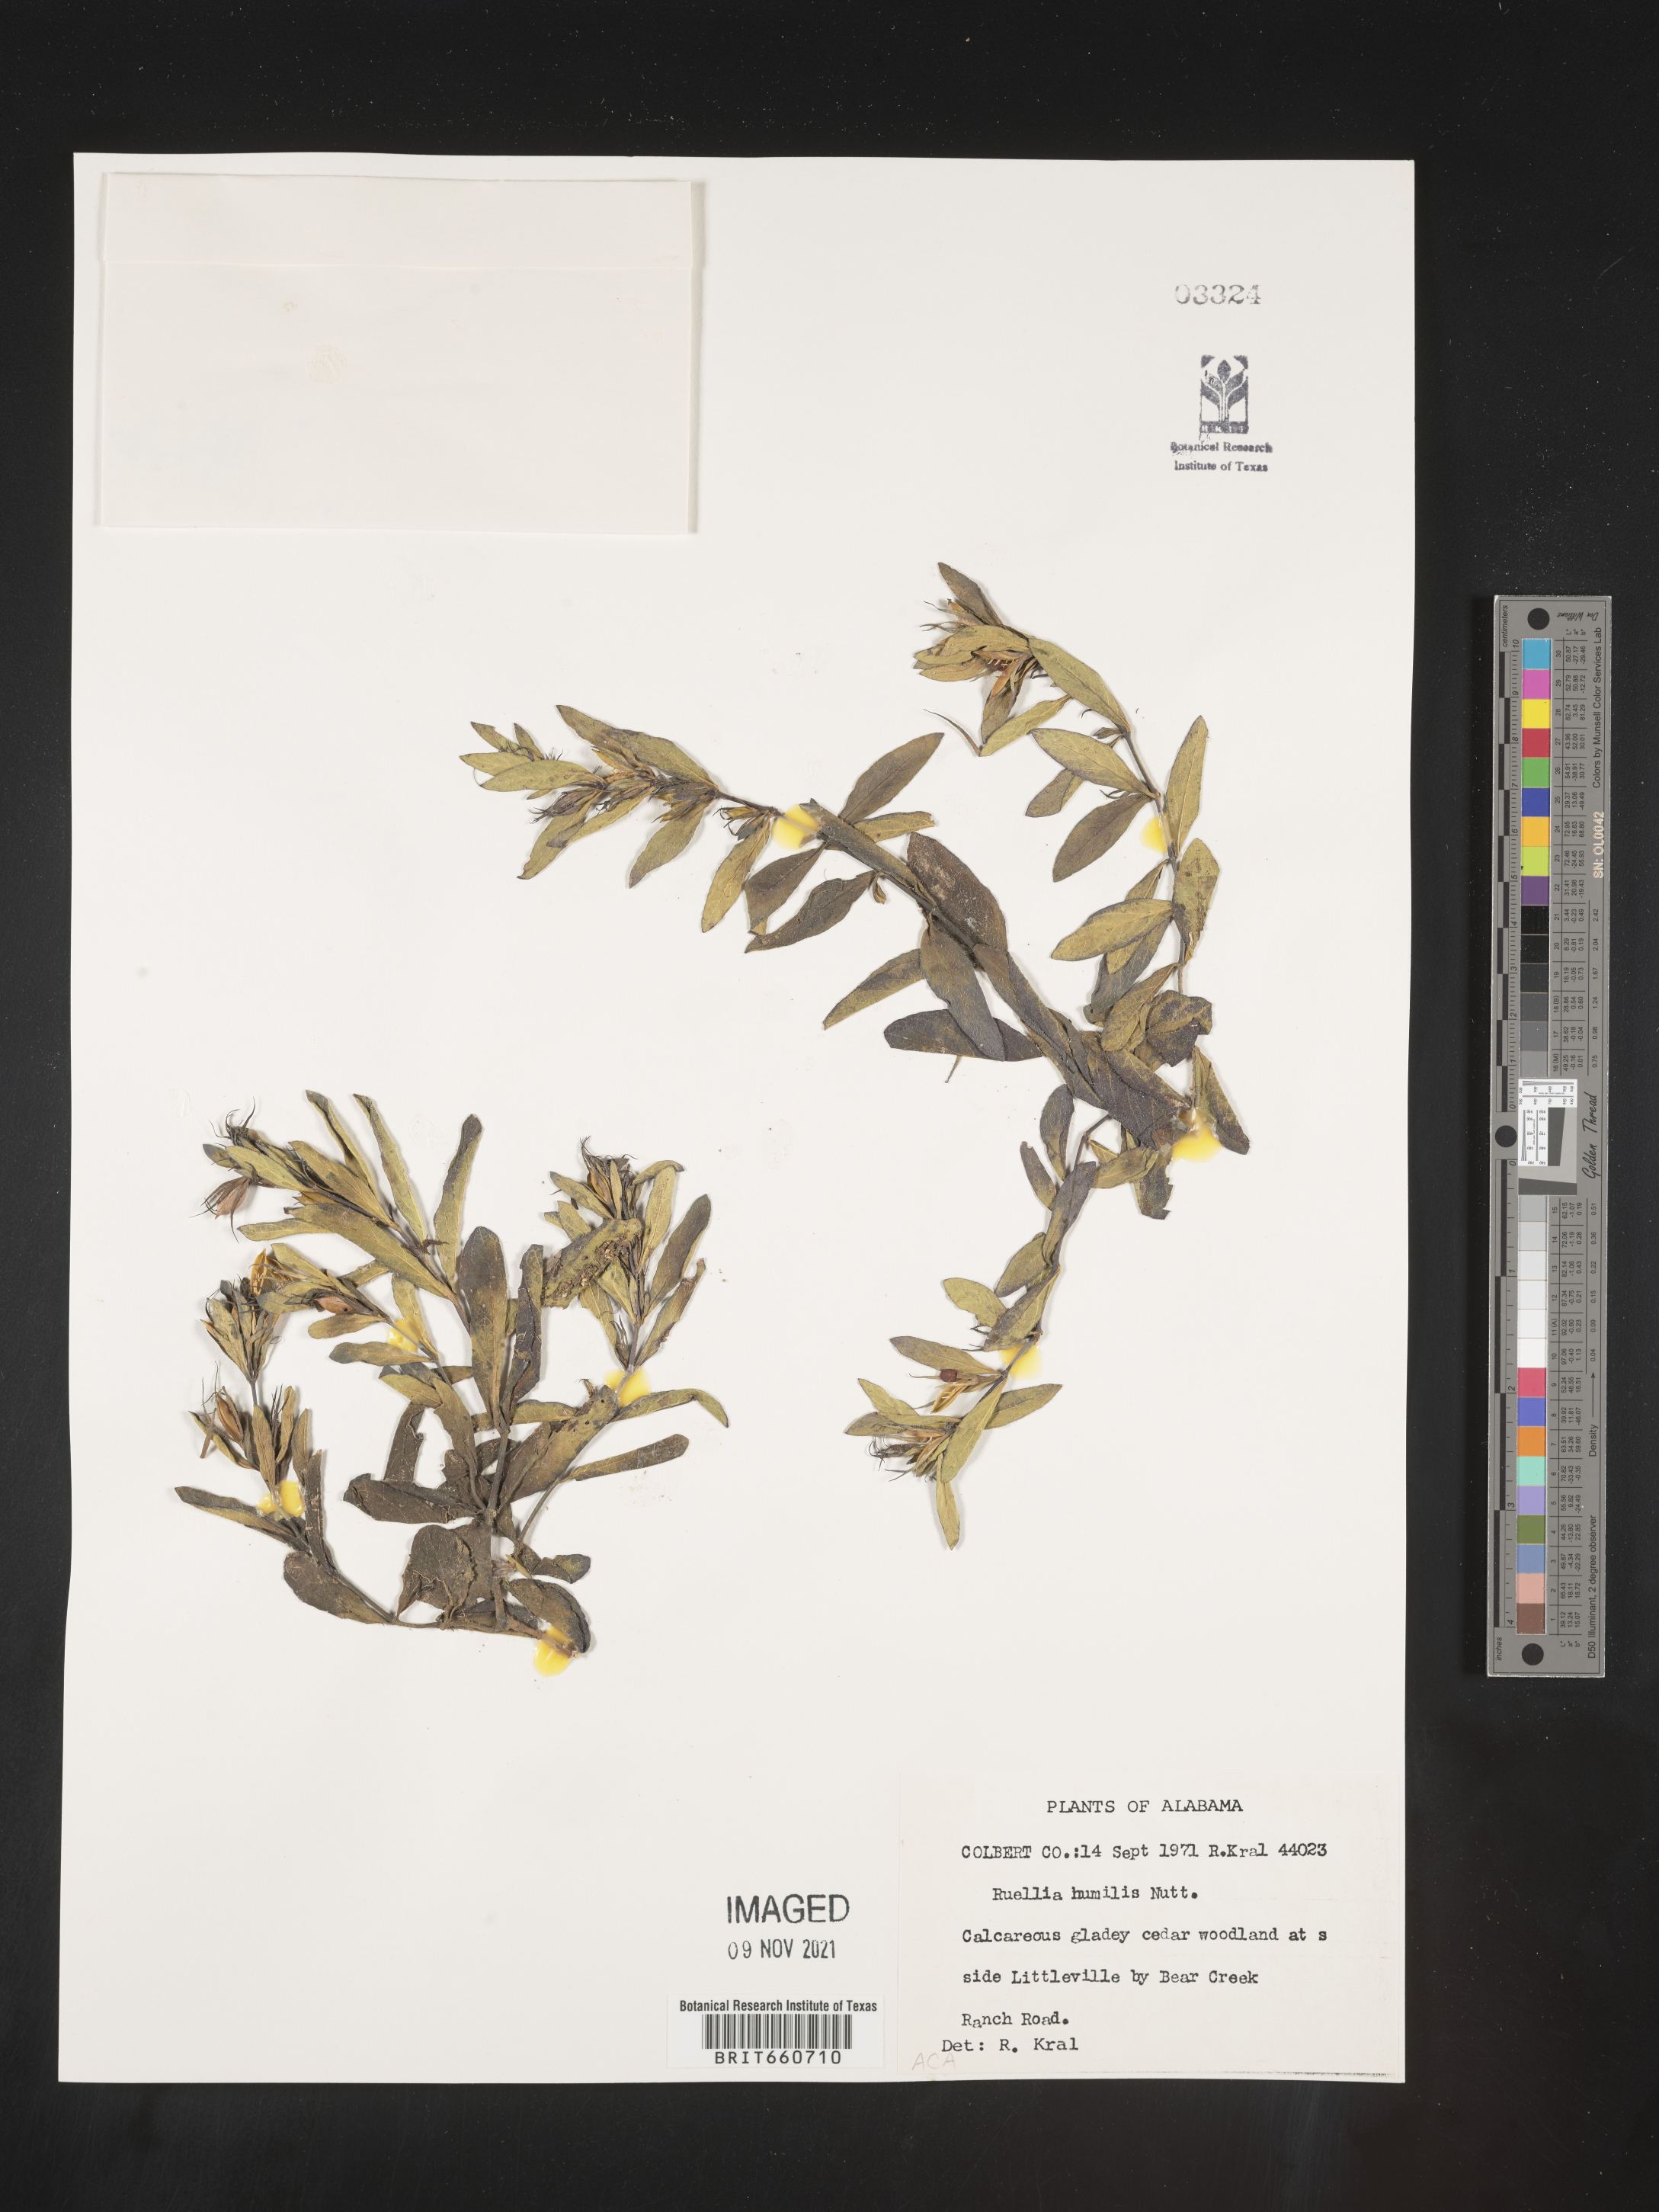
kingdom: Plantae
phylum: Tracheophyta
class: Magnoliopsida
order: Lamiales
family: Acanthaceae
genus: Ruellia
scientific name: Ruellia humilis
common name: Fringe-leaf ruellia
